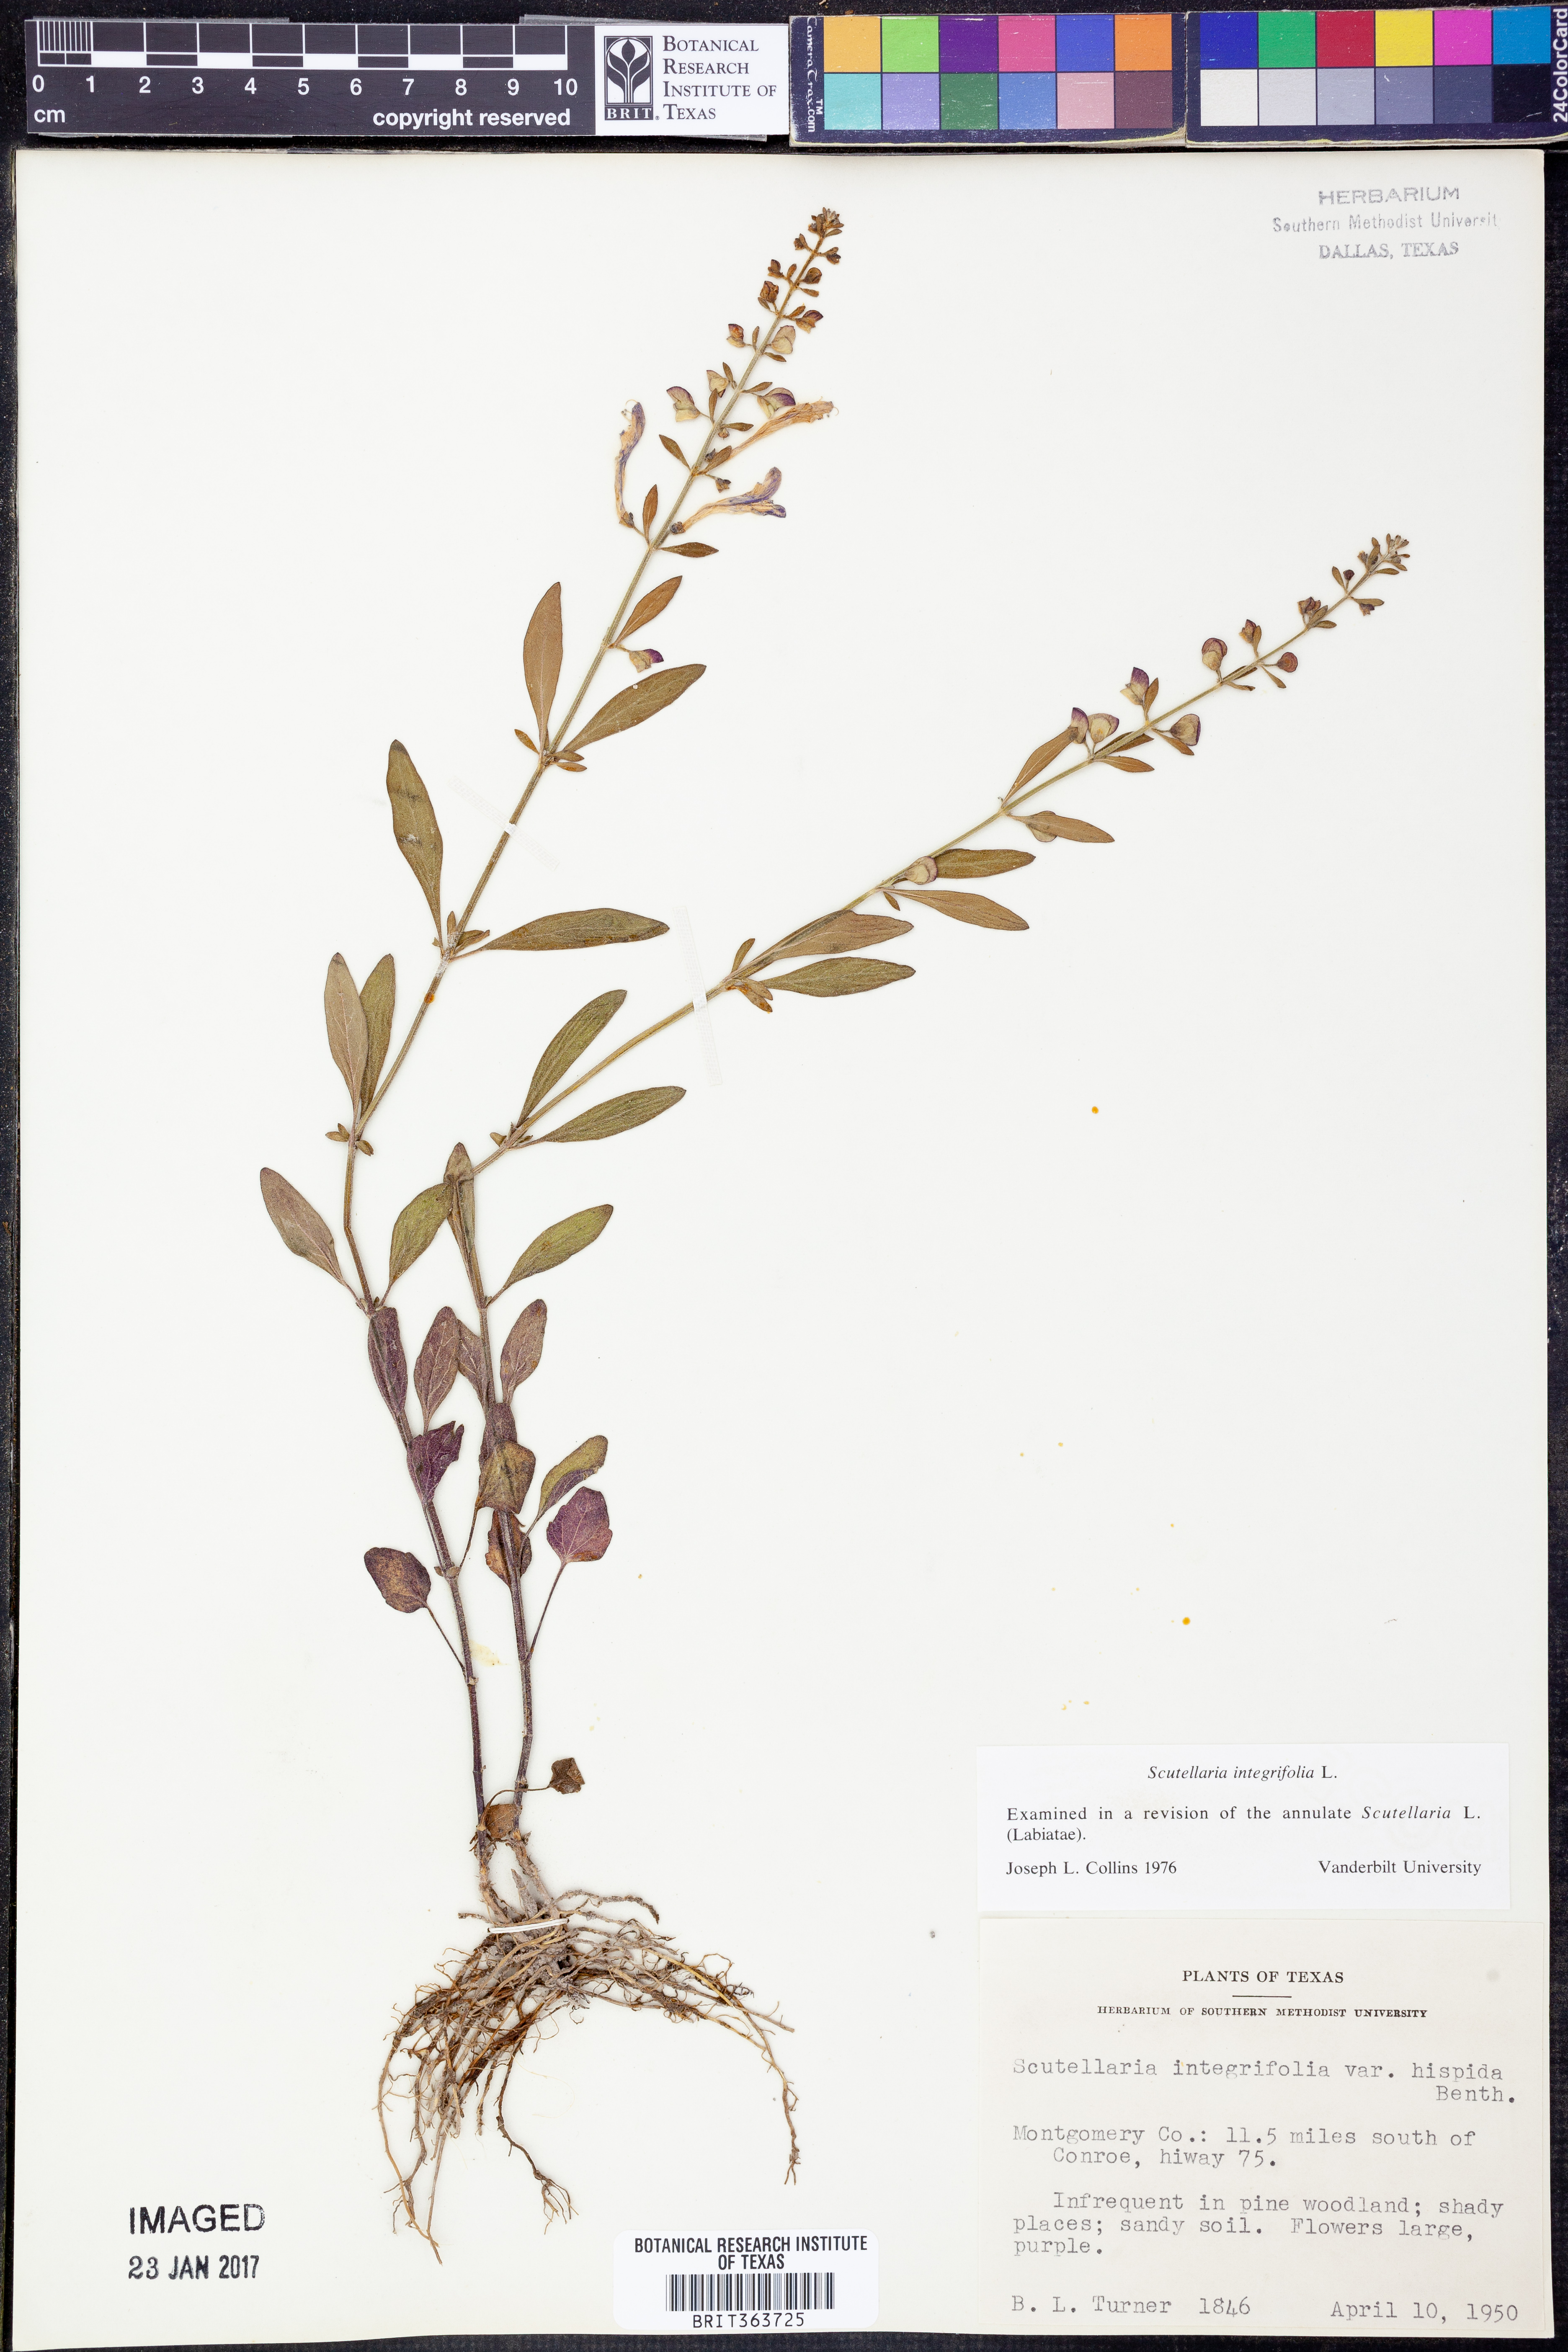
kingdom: Plantae
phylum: Tracheophyta
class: Magnoliopsida
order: Lamiales
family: Lamiaceae
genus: Scutellaria
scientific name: Scutellaria integrifolia
